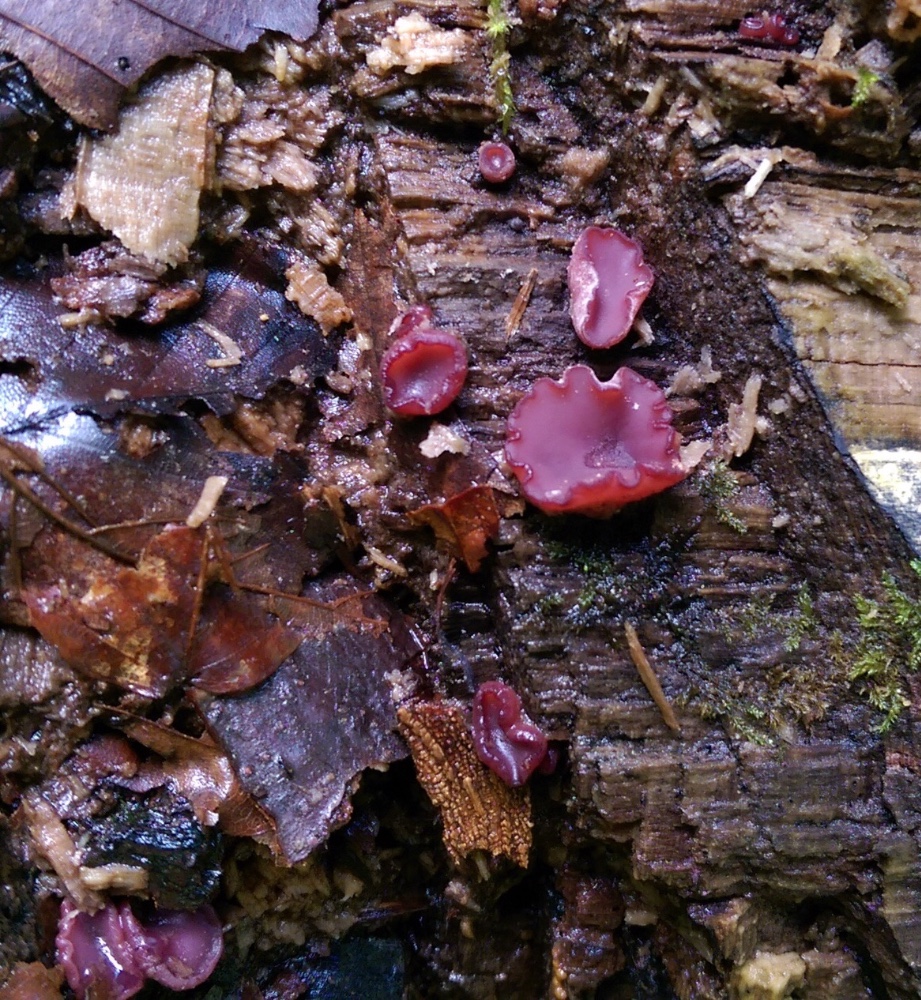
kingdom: Fungi
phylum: Ascomycota
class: Leotiomycetes
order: Helotiales
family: Gelatinodiscaceae
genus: Ascocoryne
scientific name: Ascocoryne cylichnium
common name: stor sejskive
